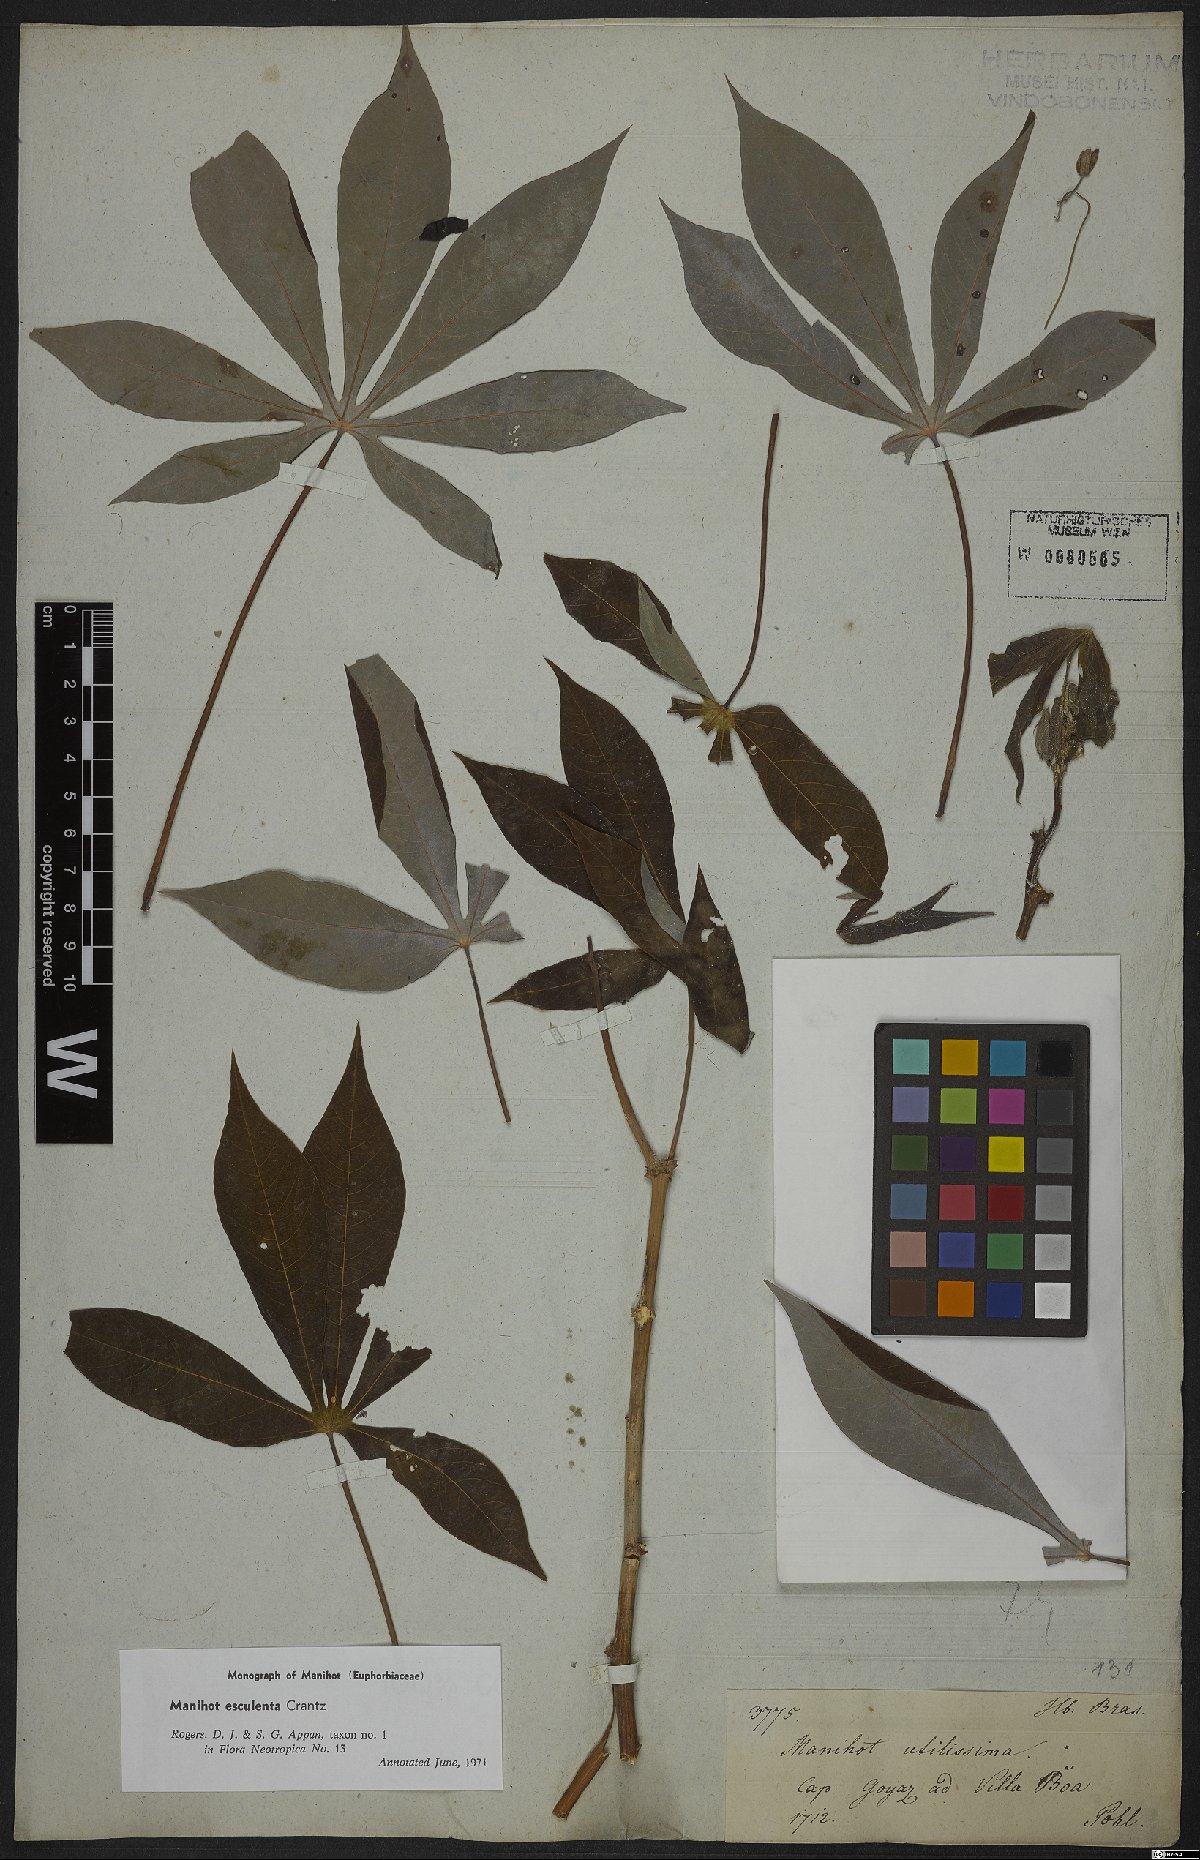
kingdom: Plantae
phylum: Tracheophyta
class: Magnoliopsida
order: Malpighiales
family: Euphorbiaceae
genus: Manihot
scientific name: Manihot esculenta
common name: Cassava
